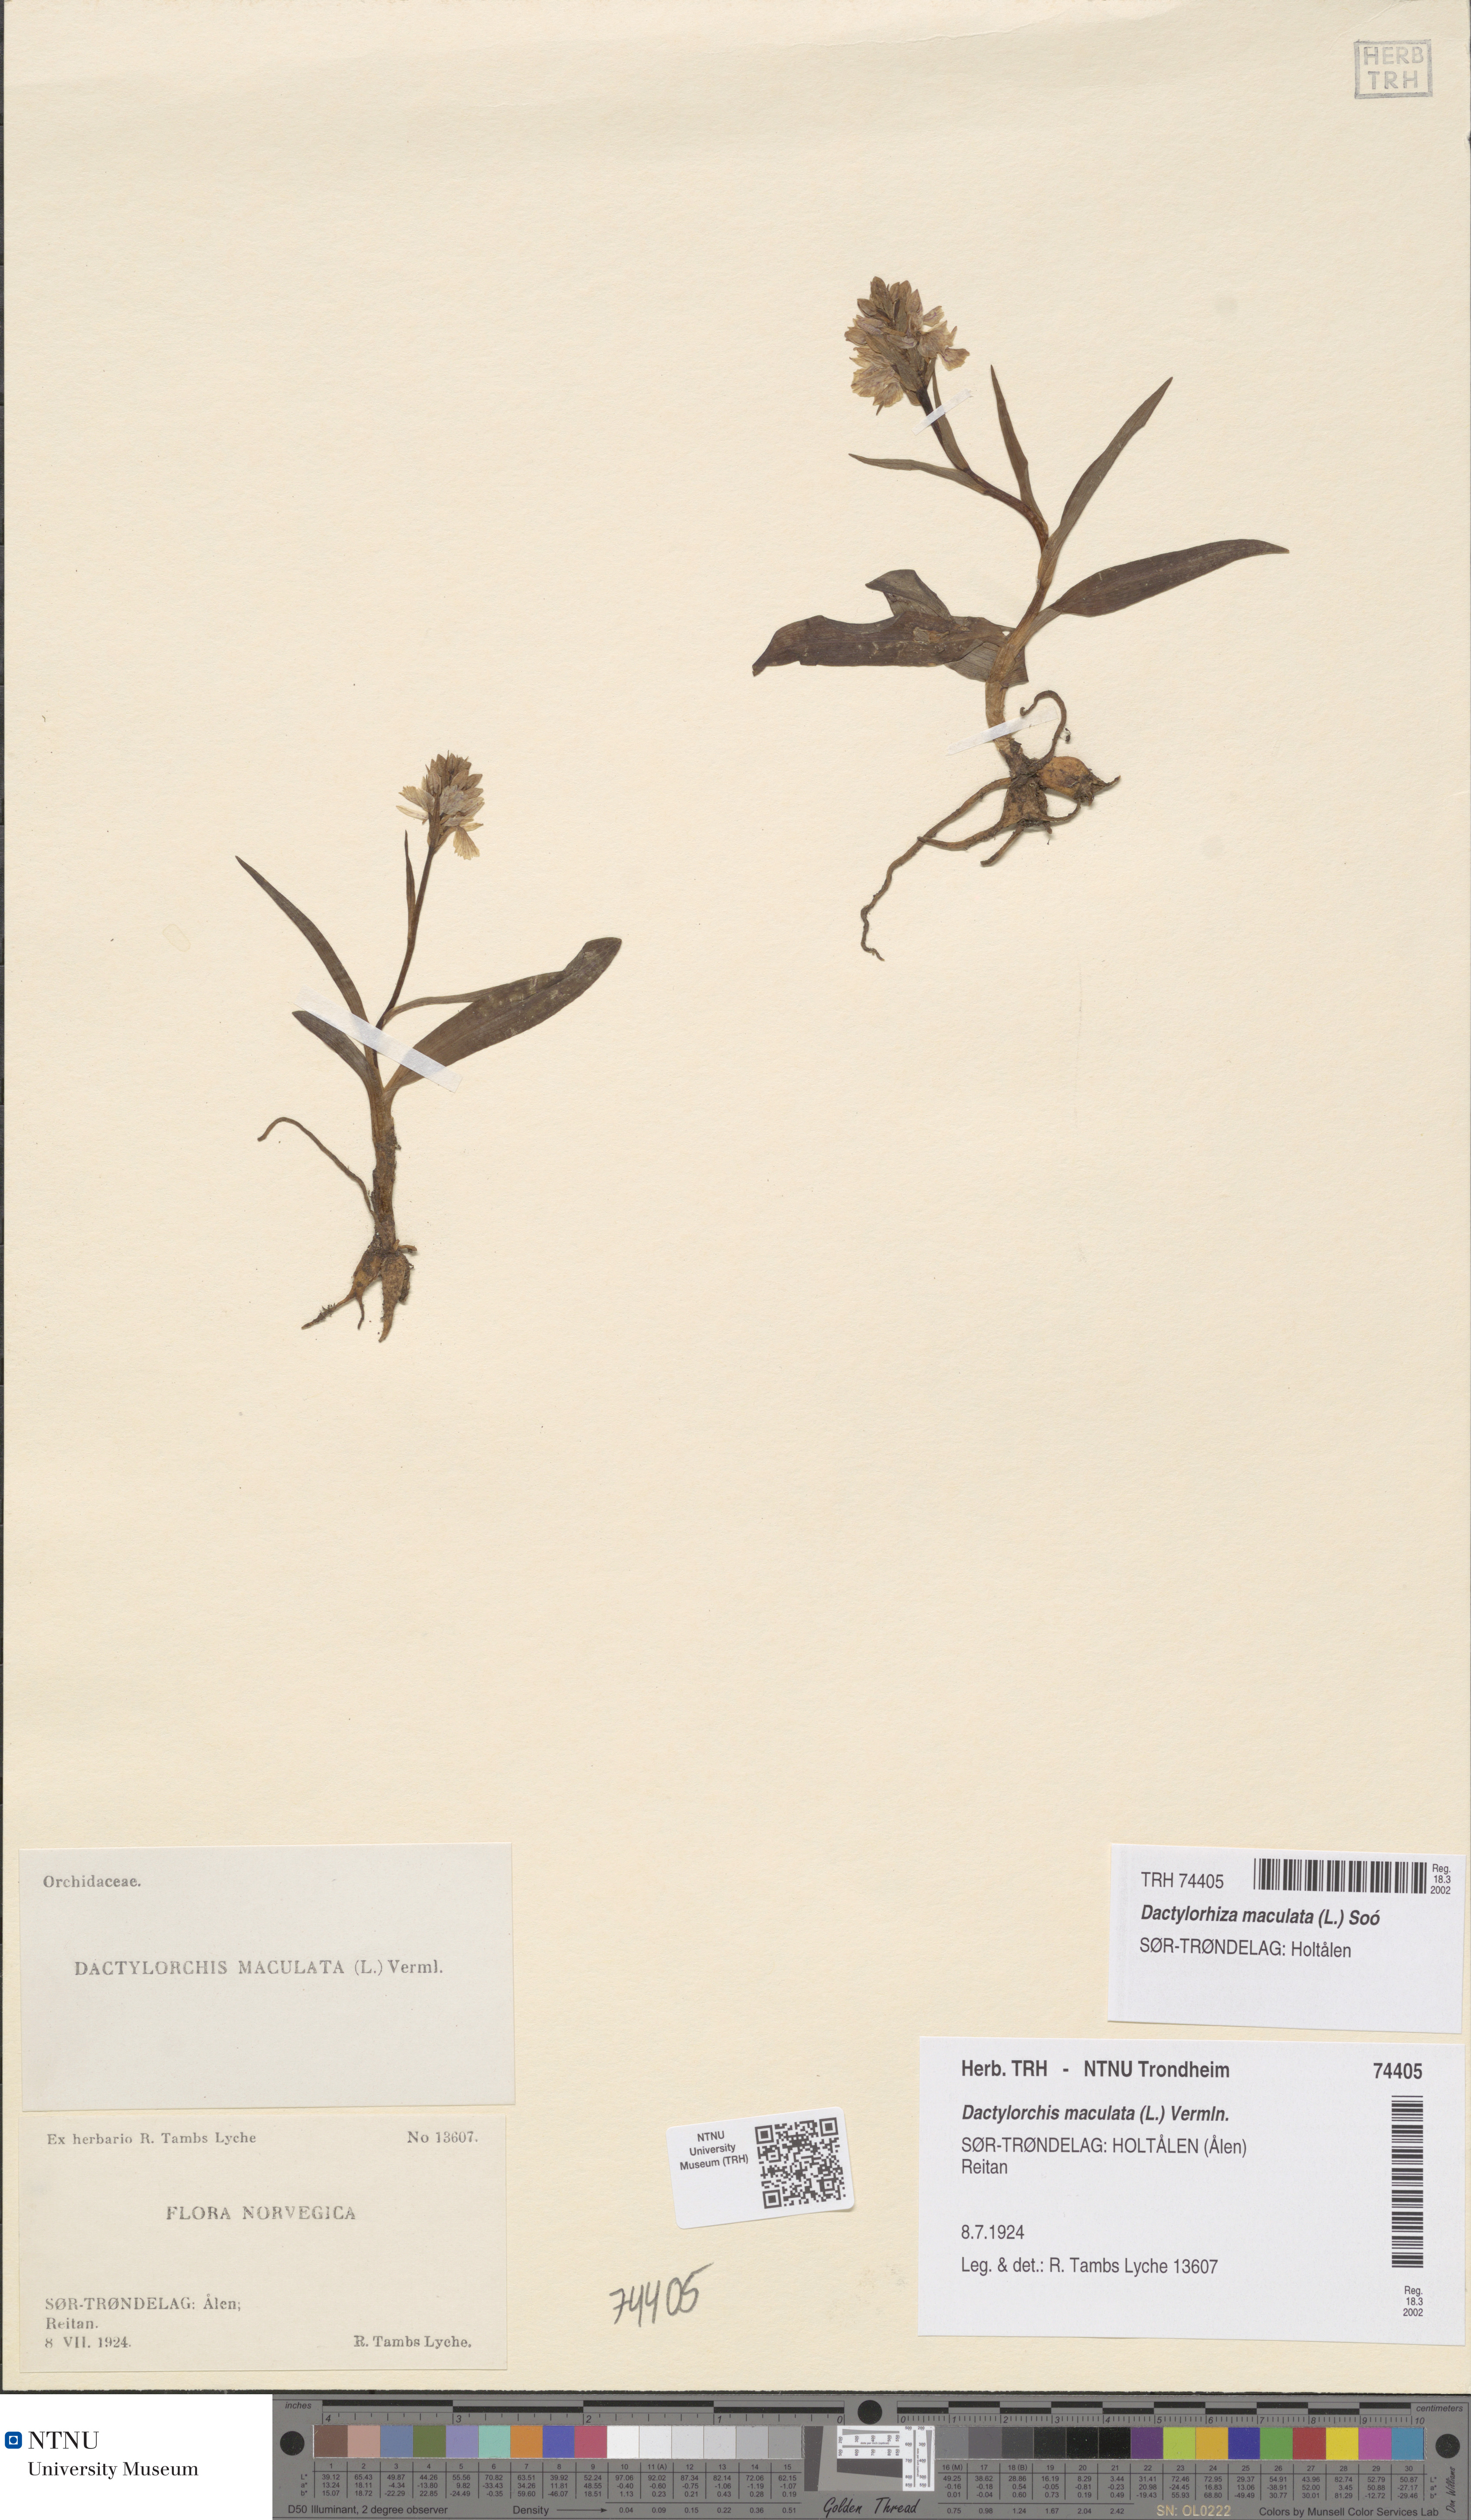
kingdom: Plantae
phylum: Tracheophyta
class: Liliopsida
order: Asparagales
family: Orchidaceae
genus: Dactylorhiza
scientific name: Dactylorhiza maculata
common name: Heath spotted-orchid
